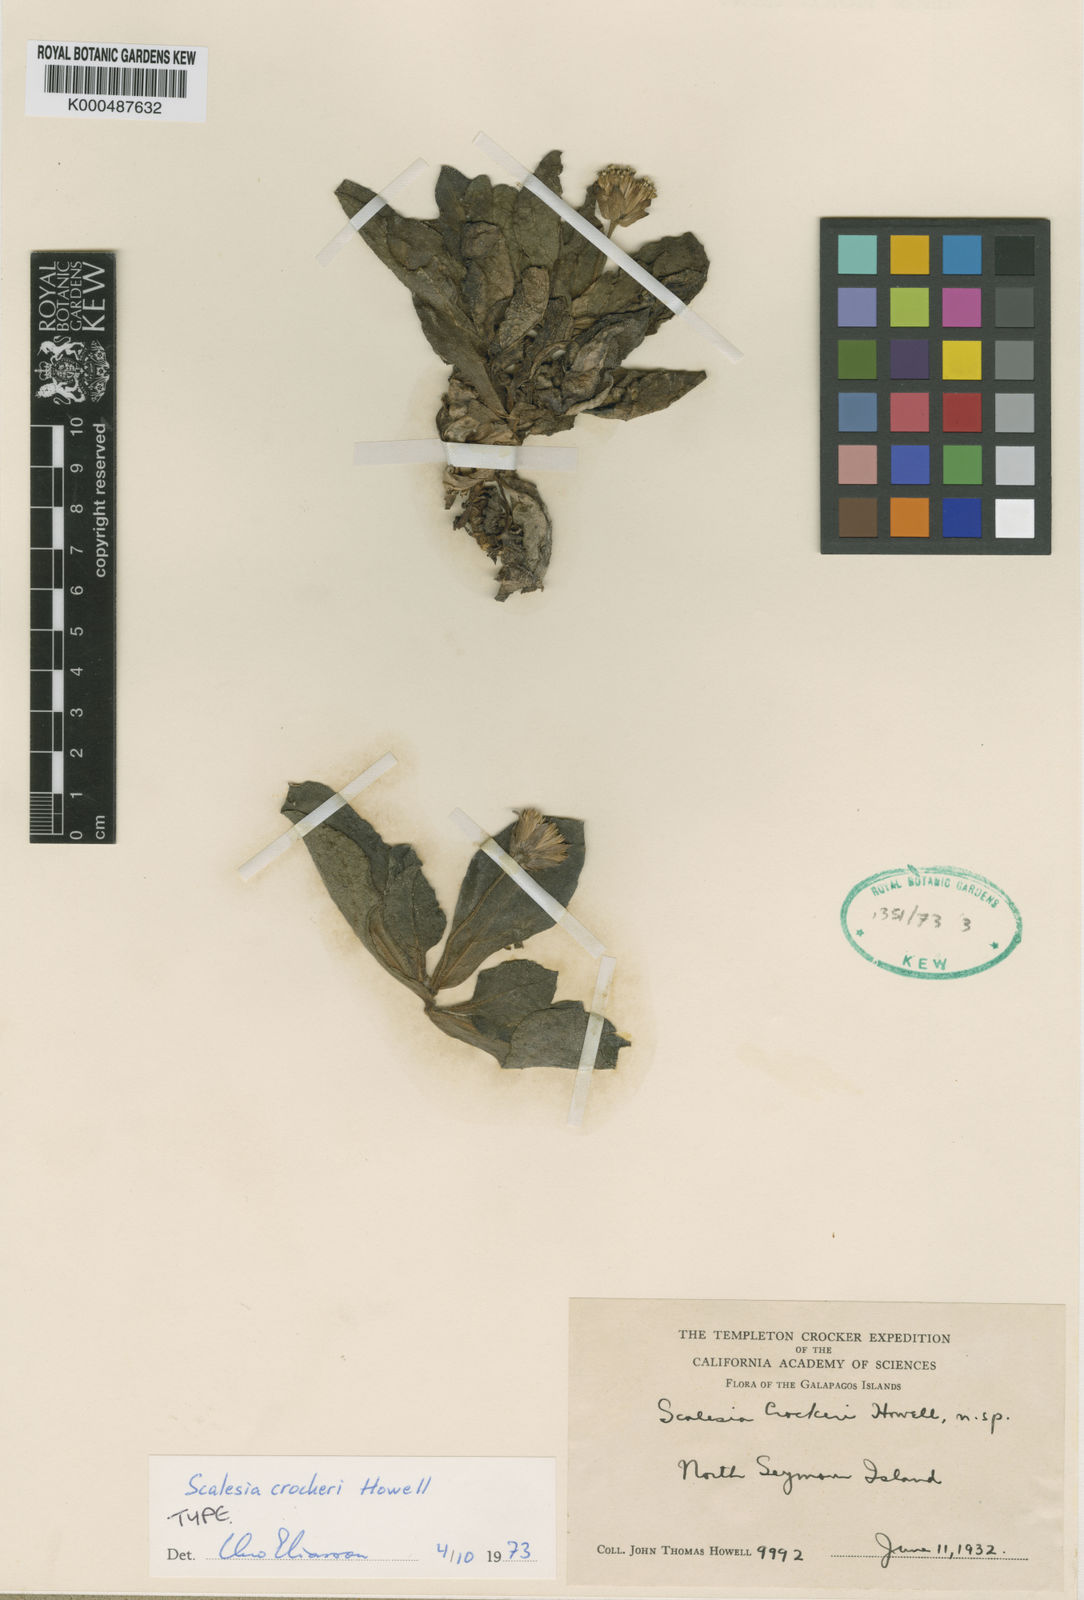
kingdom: Plantae
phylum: Tracheophyta
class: Magnoliopsida
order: Asterales
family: Asteraceae
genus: Scalesia
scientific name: Scalesia crockeri
